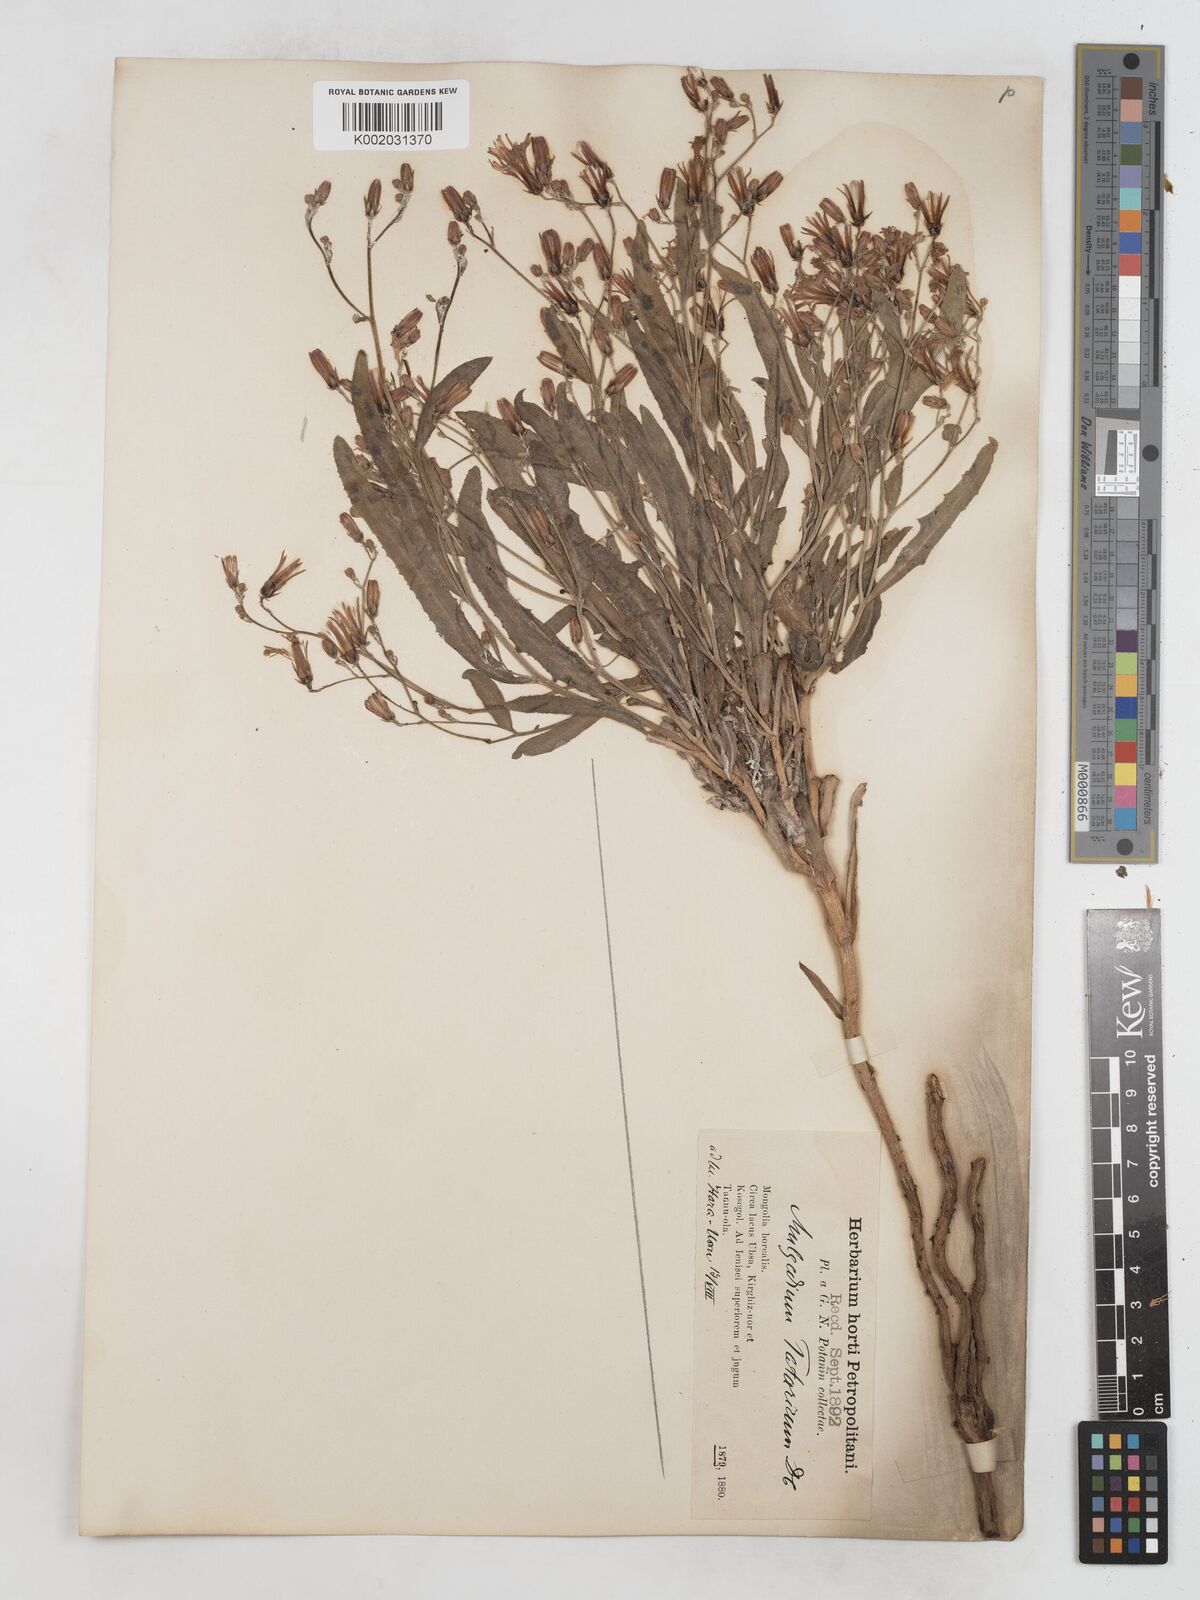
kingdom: Plantae
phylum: Tracheophyta
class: Magnoliopsida
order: Asterales
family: Asteraceae
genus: Lactuca
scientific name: Lactuca tatarica
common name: Blue lettuce
